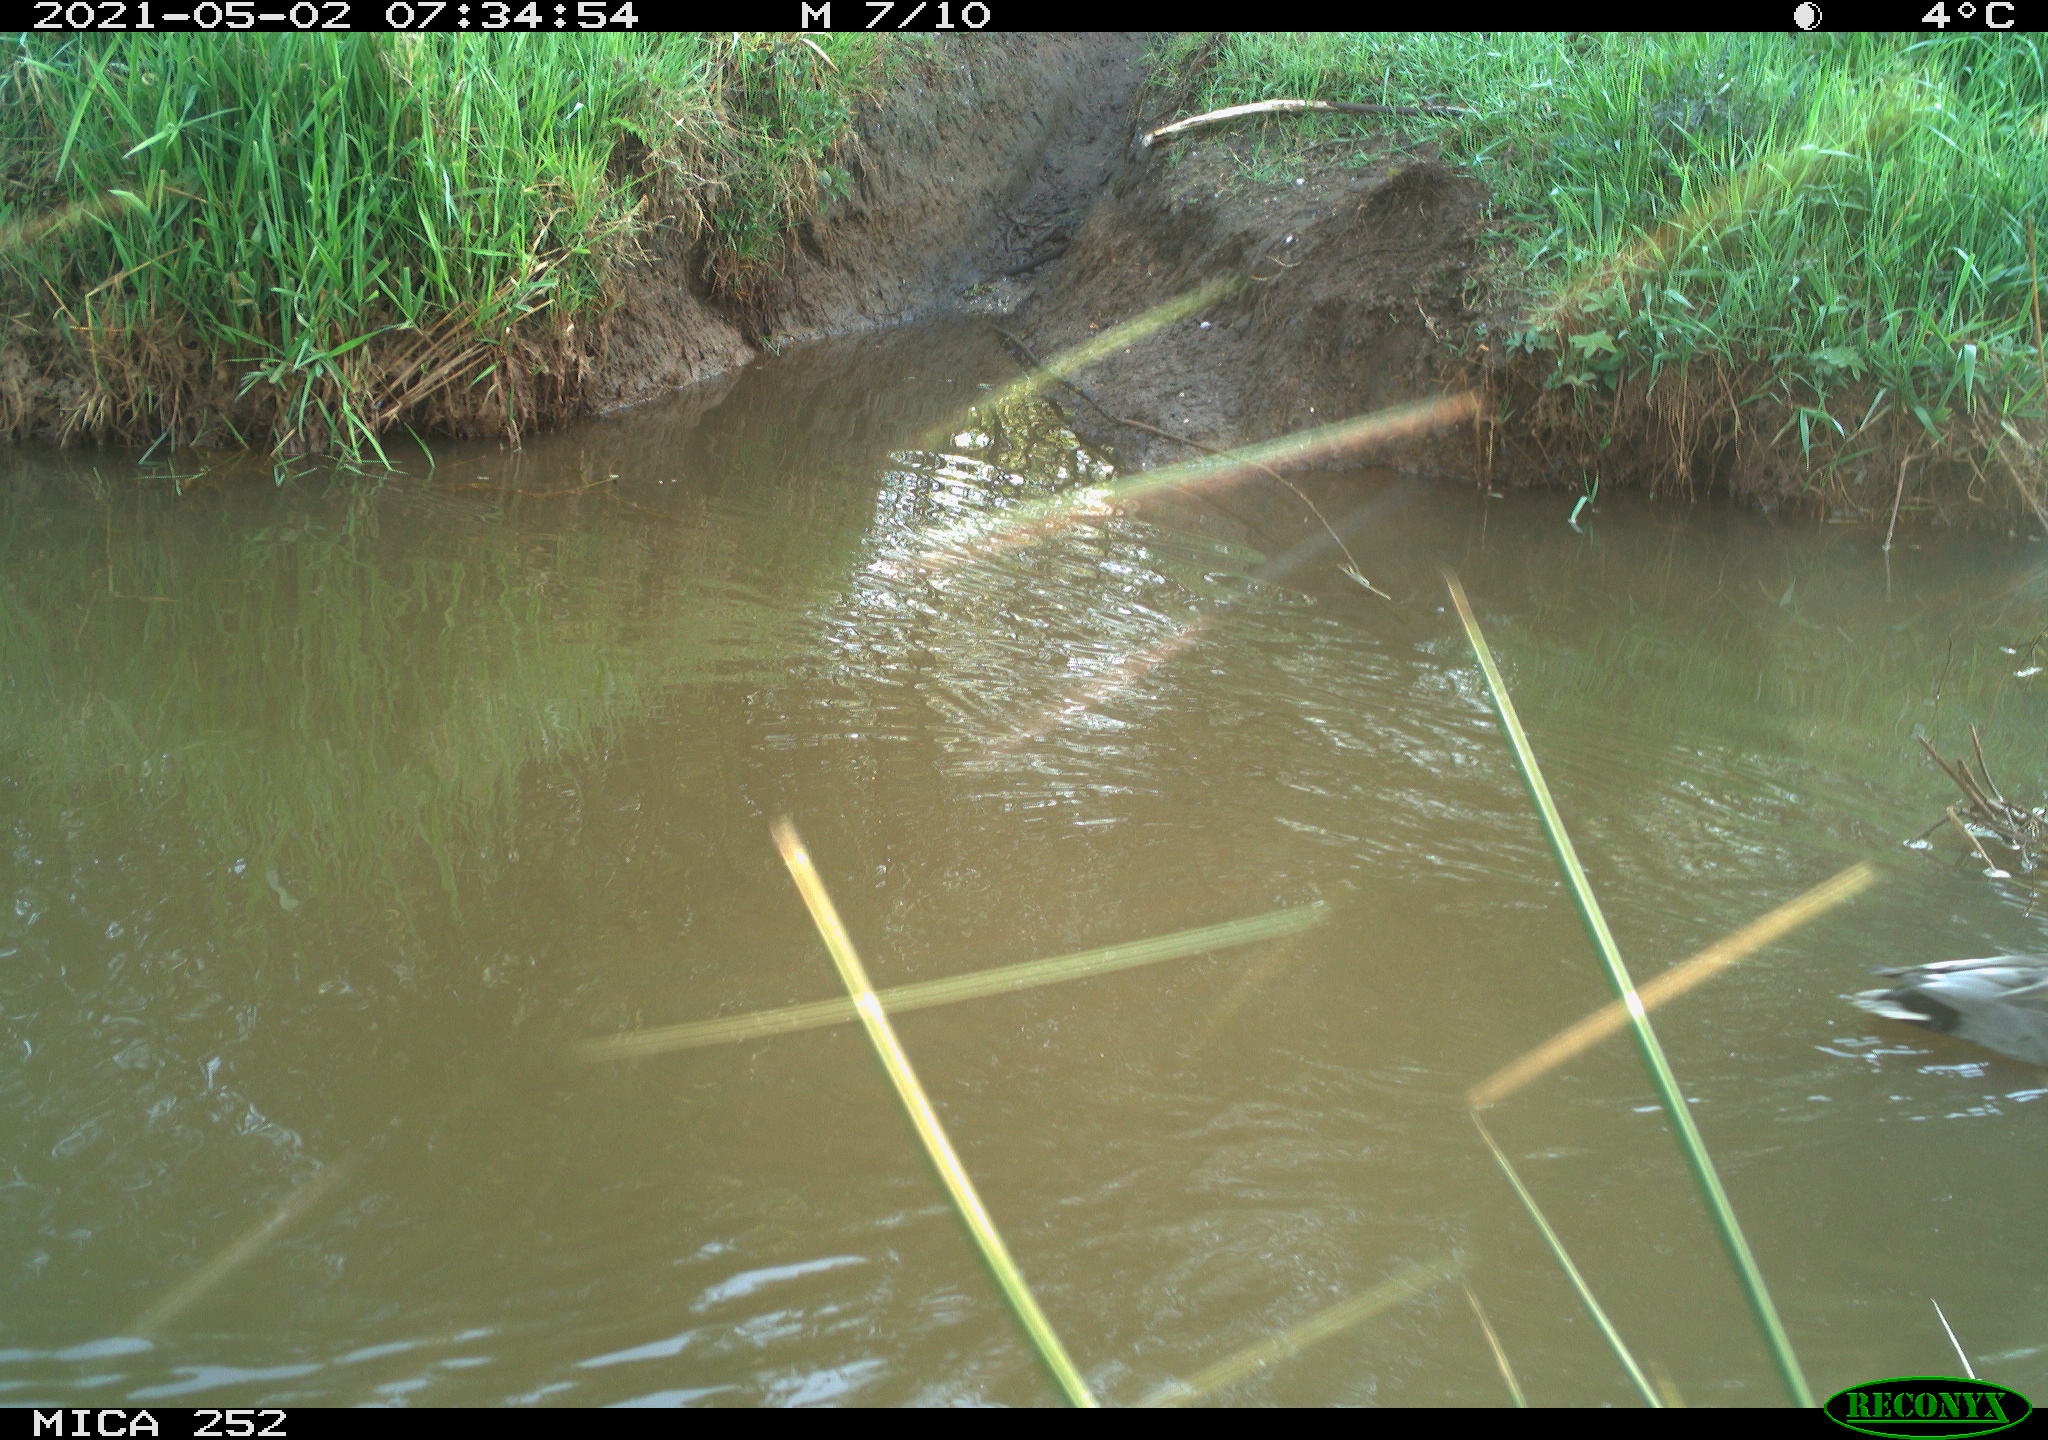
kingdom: Animalia
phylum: Chordata
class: Aves
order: Anseriformes
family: Anatidae
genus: Anas
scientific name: Anas
